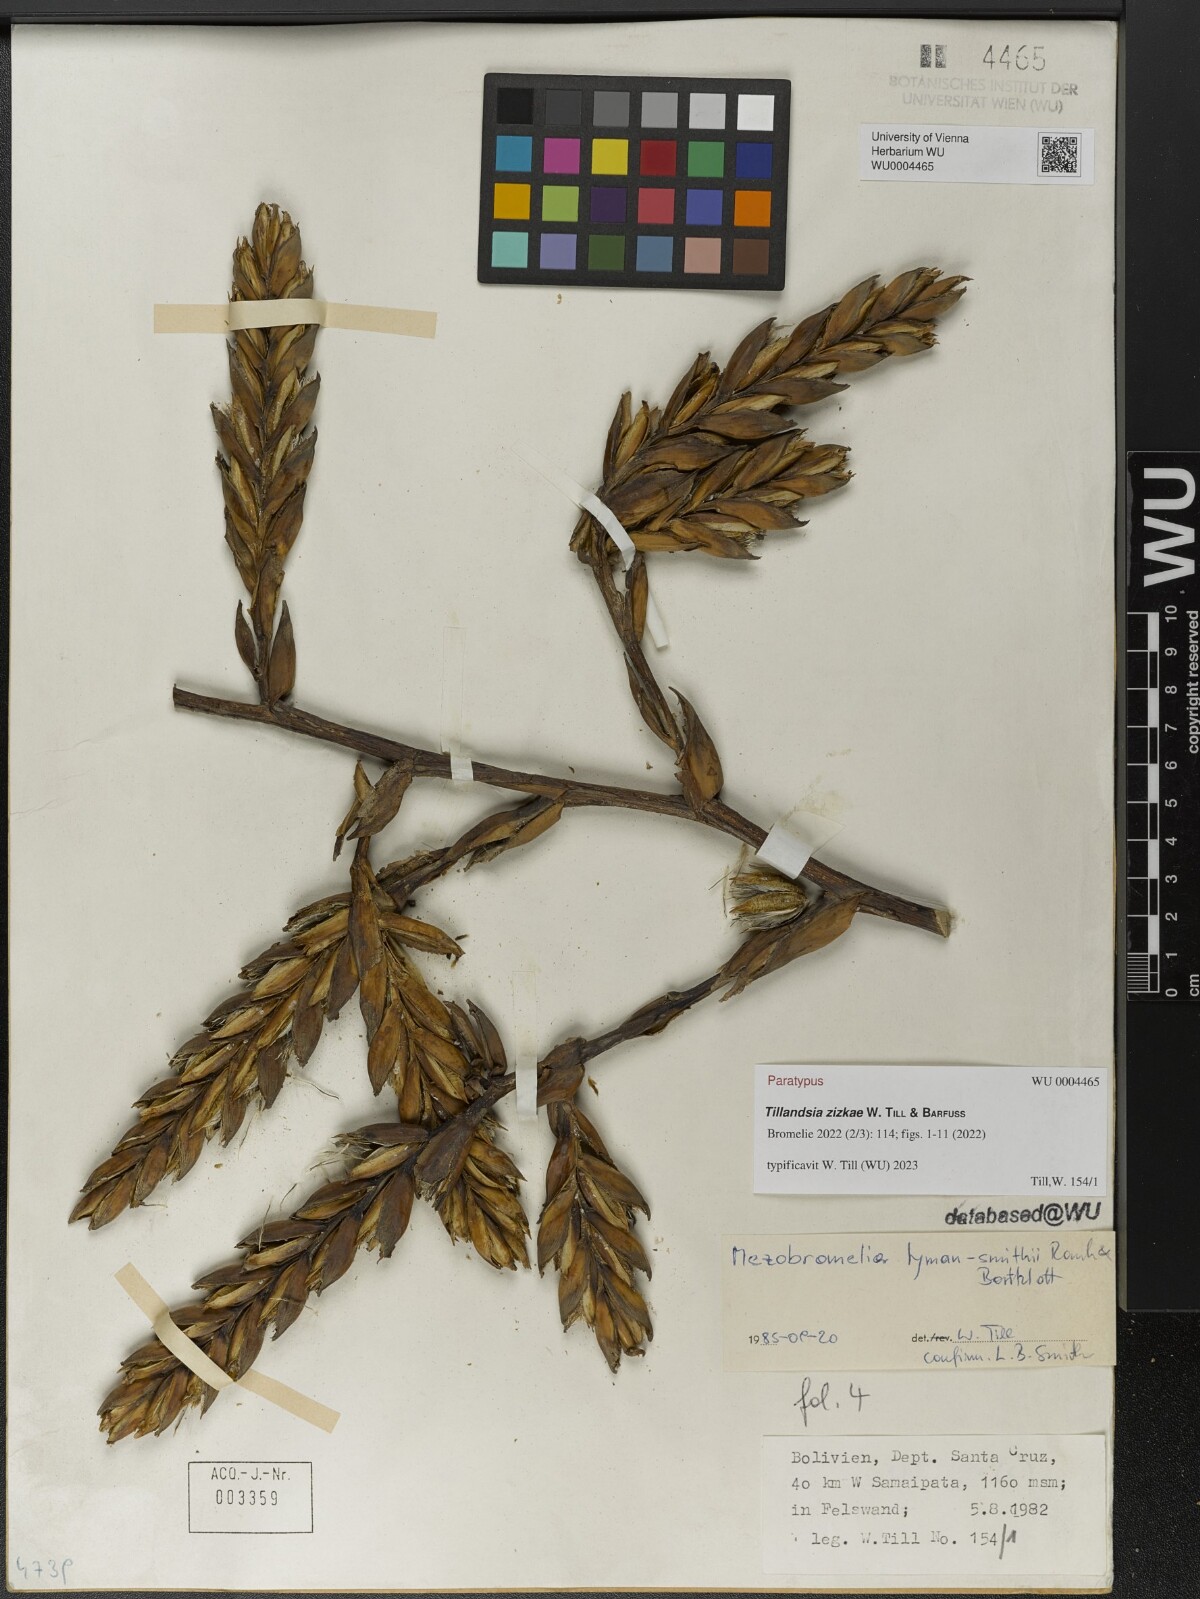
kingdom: Plantae
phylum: Tracheophyta
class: Liliopsida
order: Poales
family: Bromeliaceae
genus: Tillandsia
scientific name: Tillandsia
